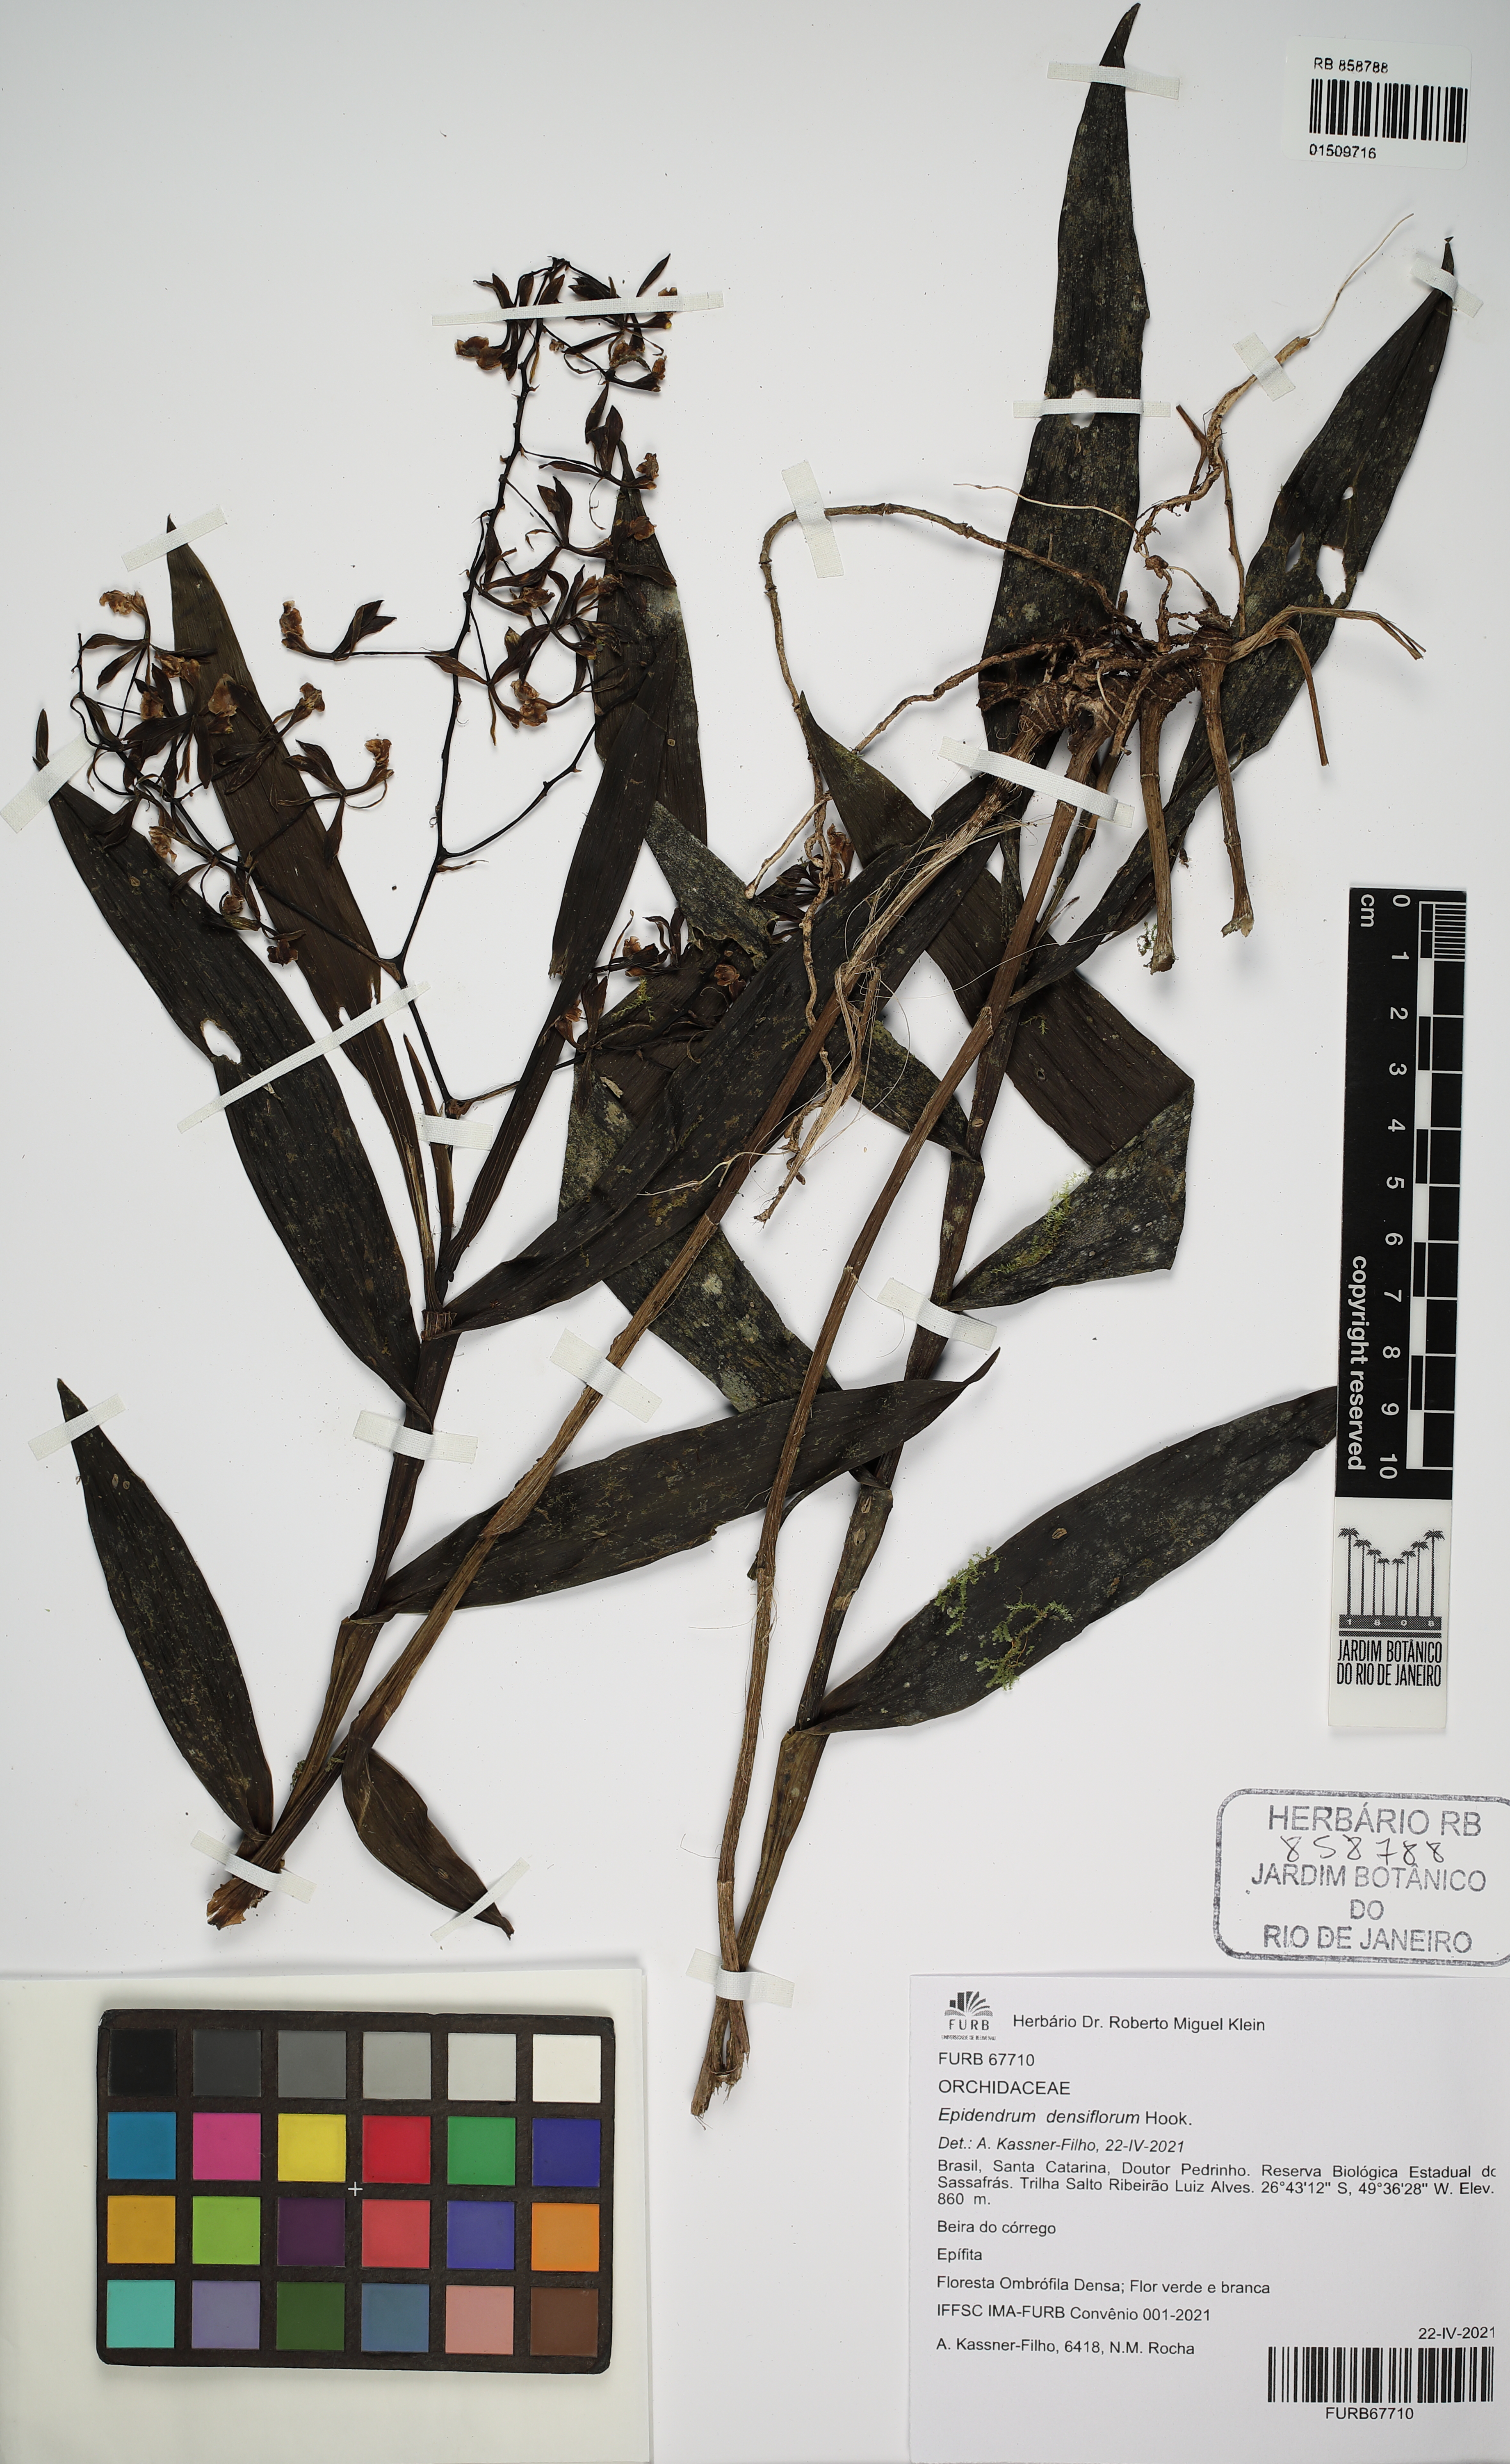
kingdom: Plantae
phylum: Tracheophyta
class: Liliopsida
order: Asparagales
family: Orchidaceae
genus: Epidendrum
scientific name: Epidendrum densiflorum
